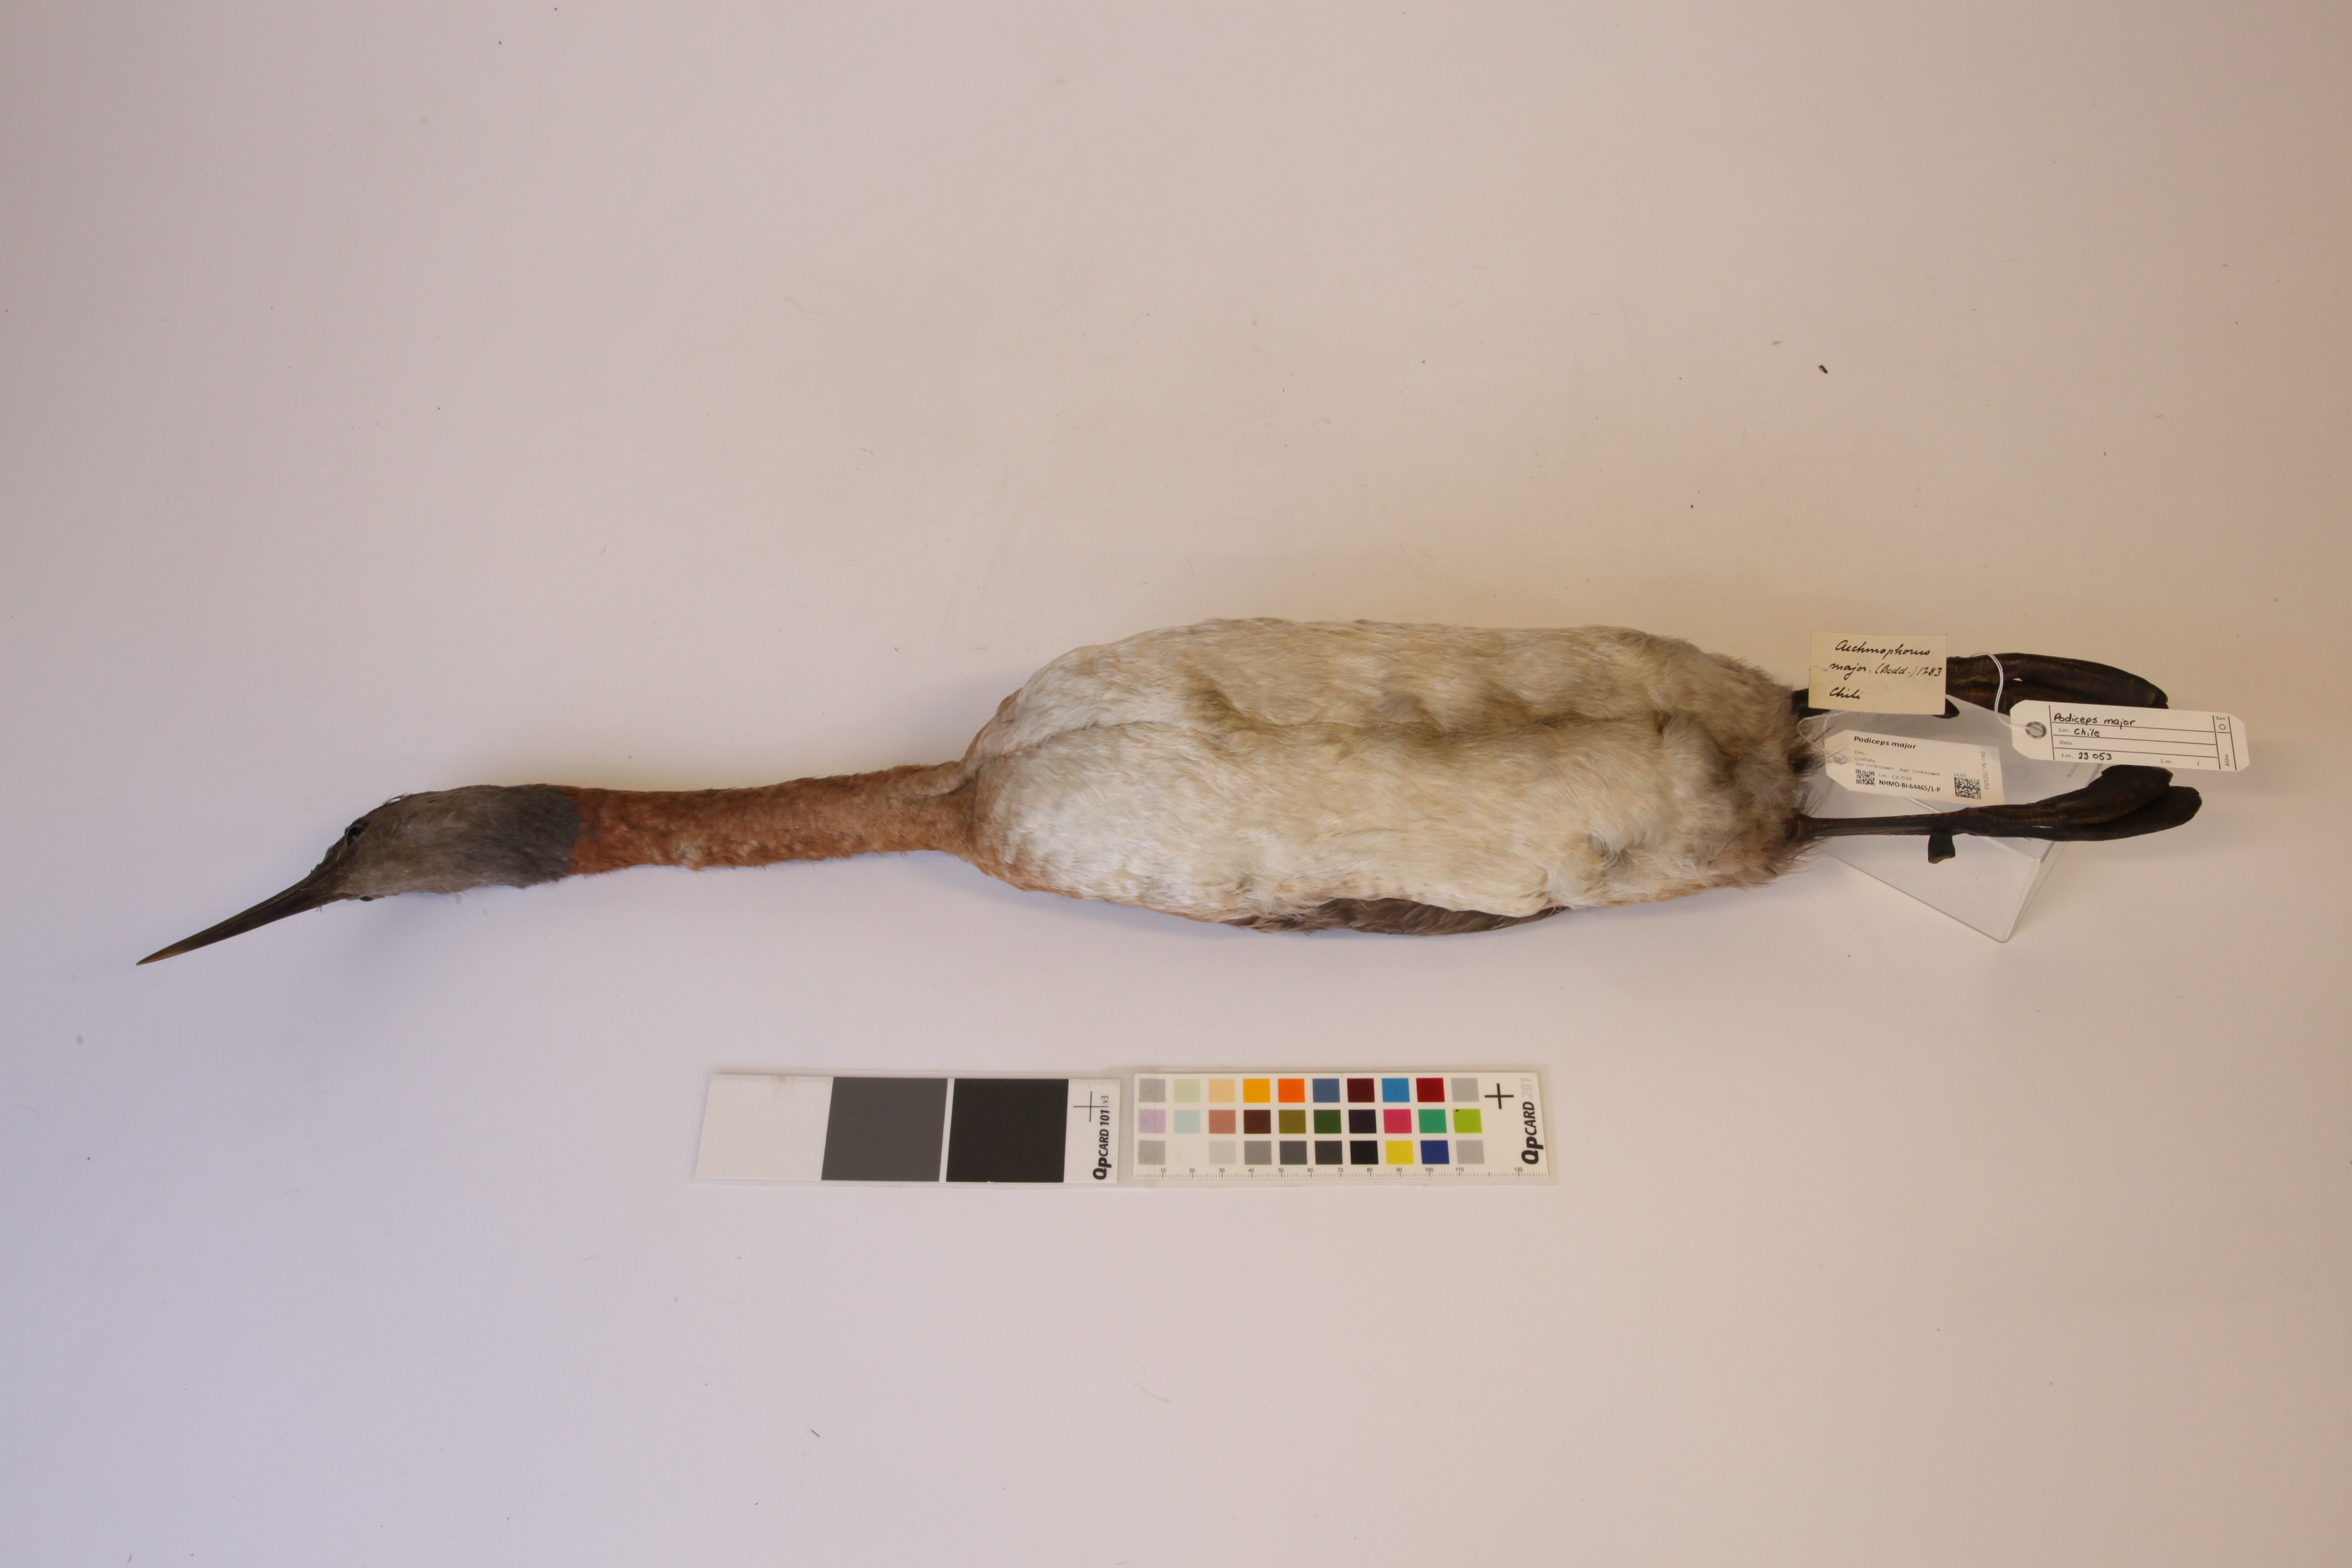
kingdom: Animalia
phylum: Chordata
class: Aves
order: Podicipediformes
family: Podicipedidae
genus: Podiceps
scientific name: Podiceps major
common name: Great grebe
